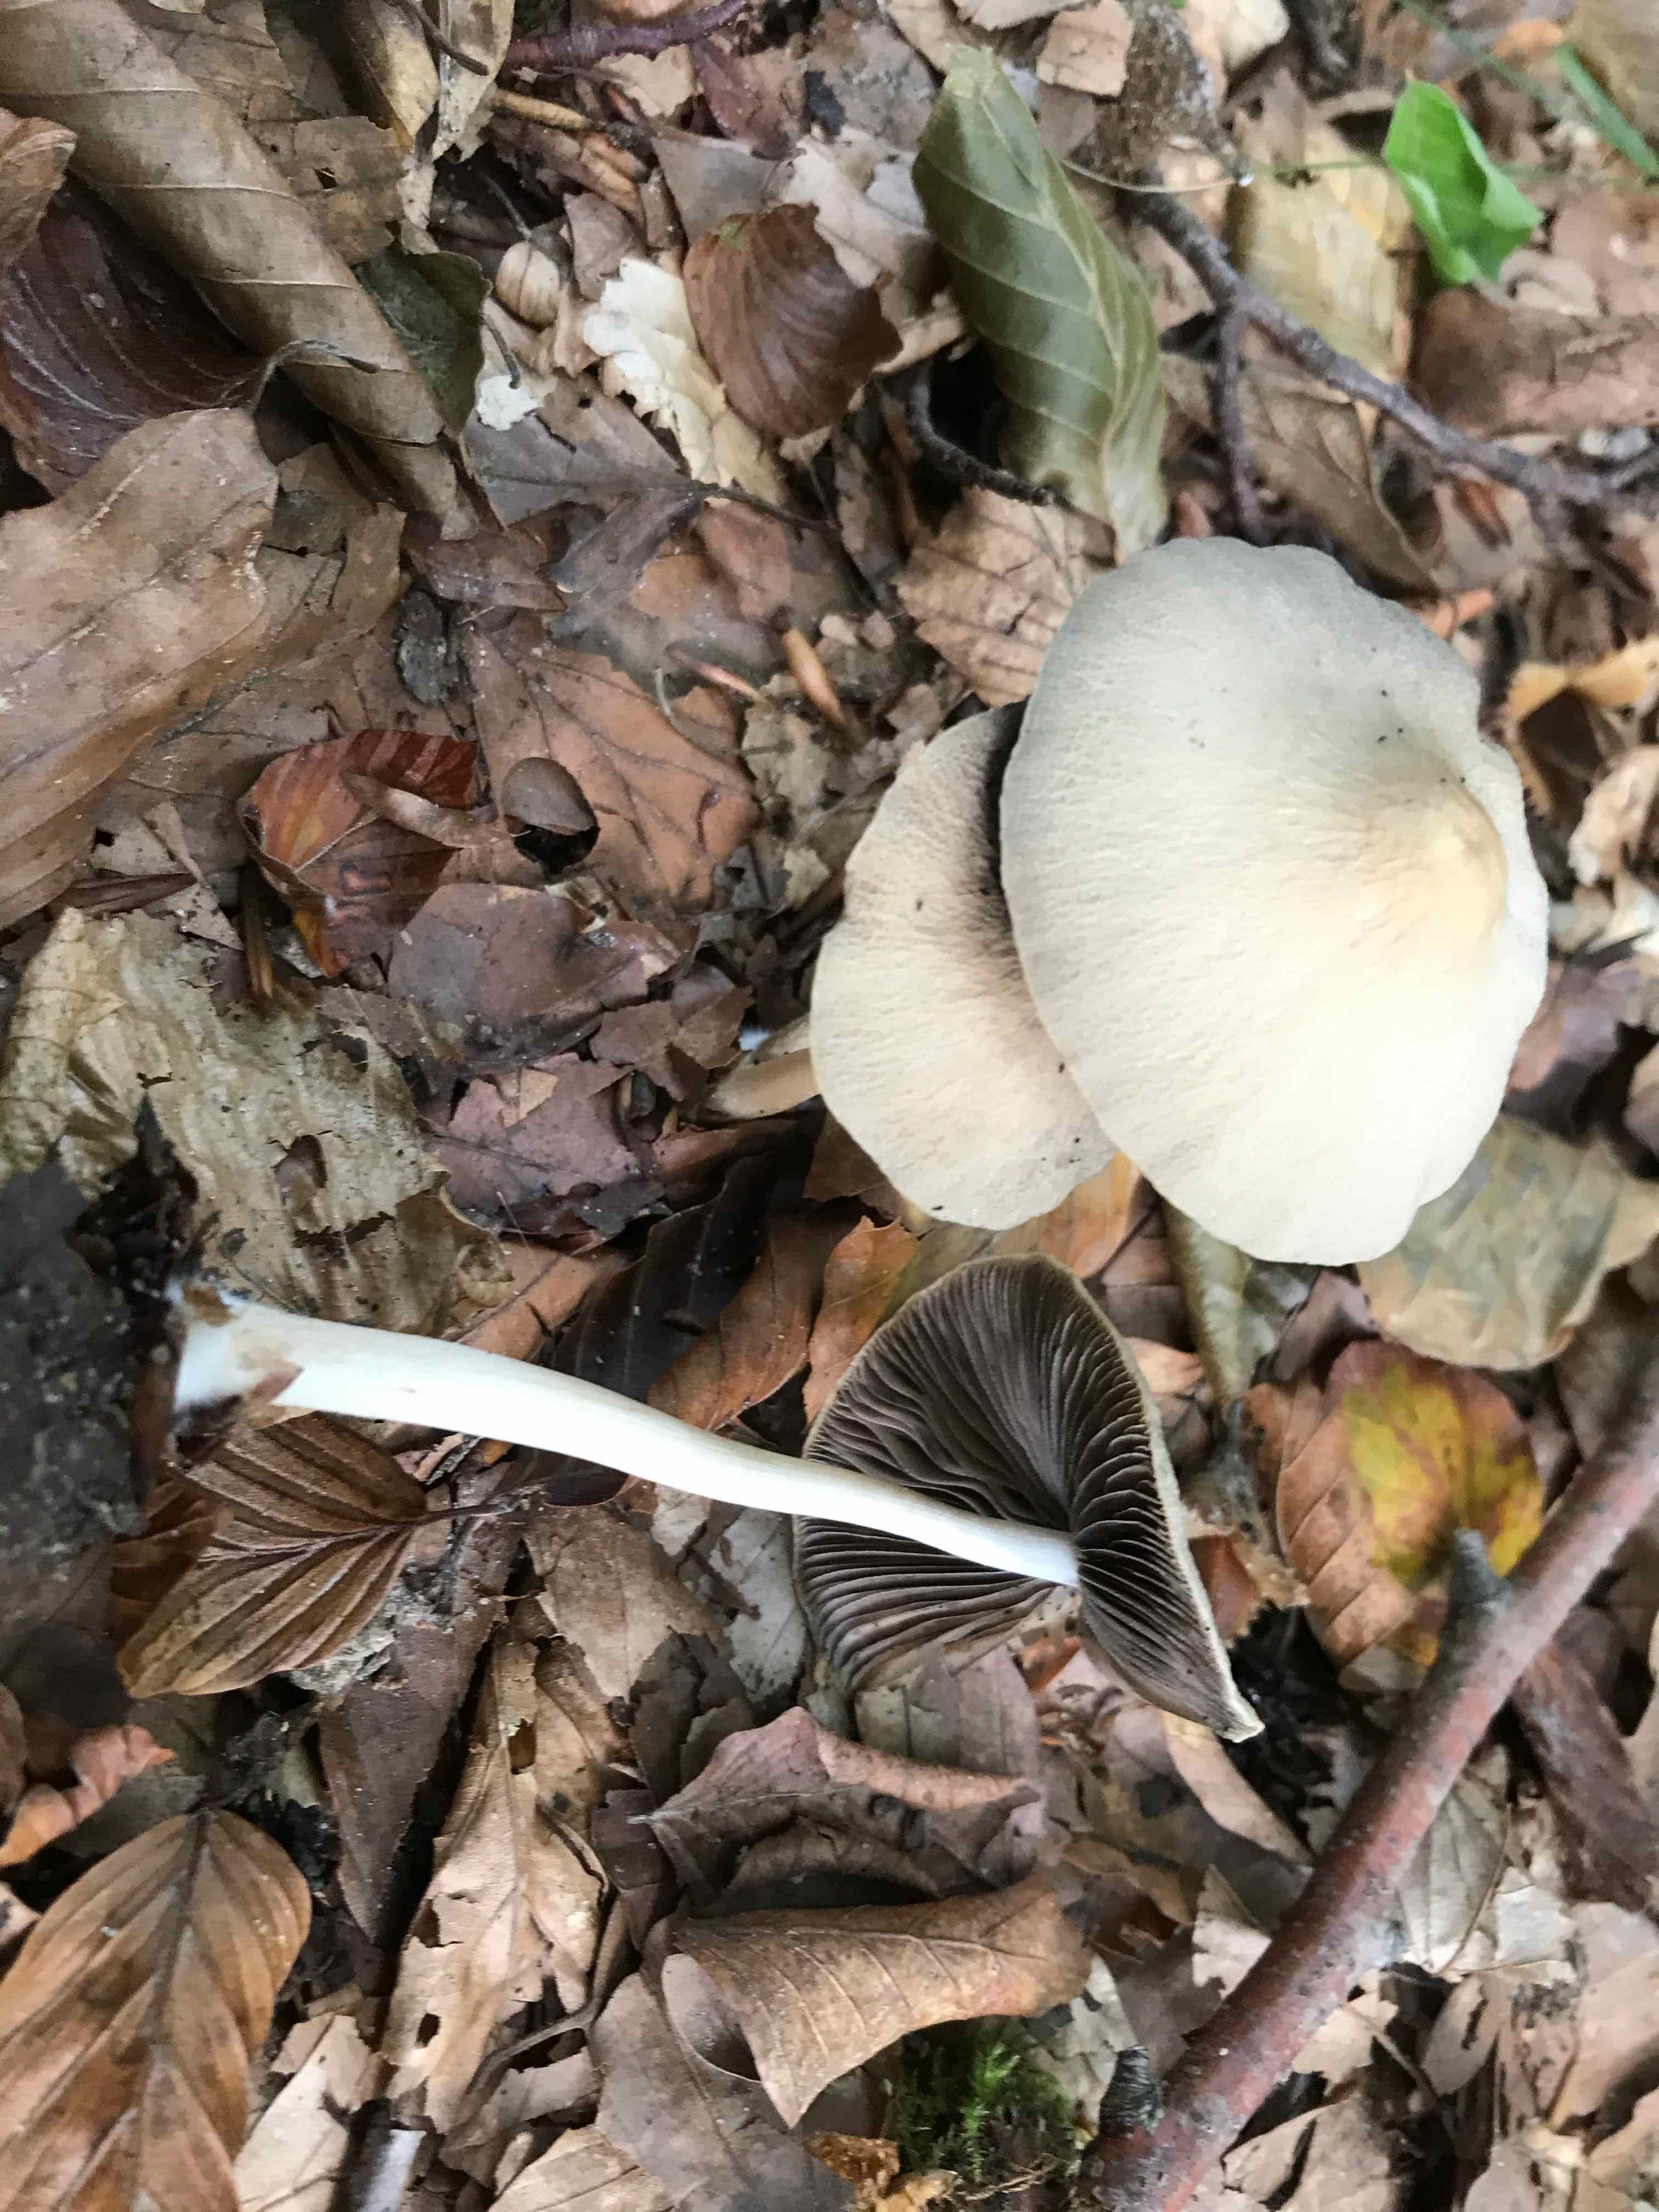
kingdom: Fungi
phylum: Basidiomycota
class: Agaricomycetes
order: Agaricales
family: Psathyrellaceae
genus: Psathyrella
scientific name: Psathyrella fusca
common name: gråbladet mørkhat
